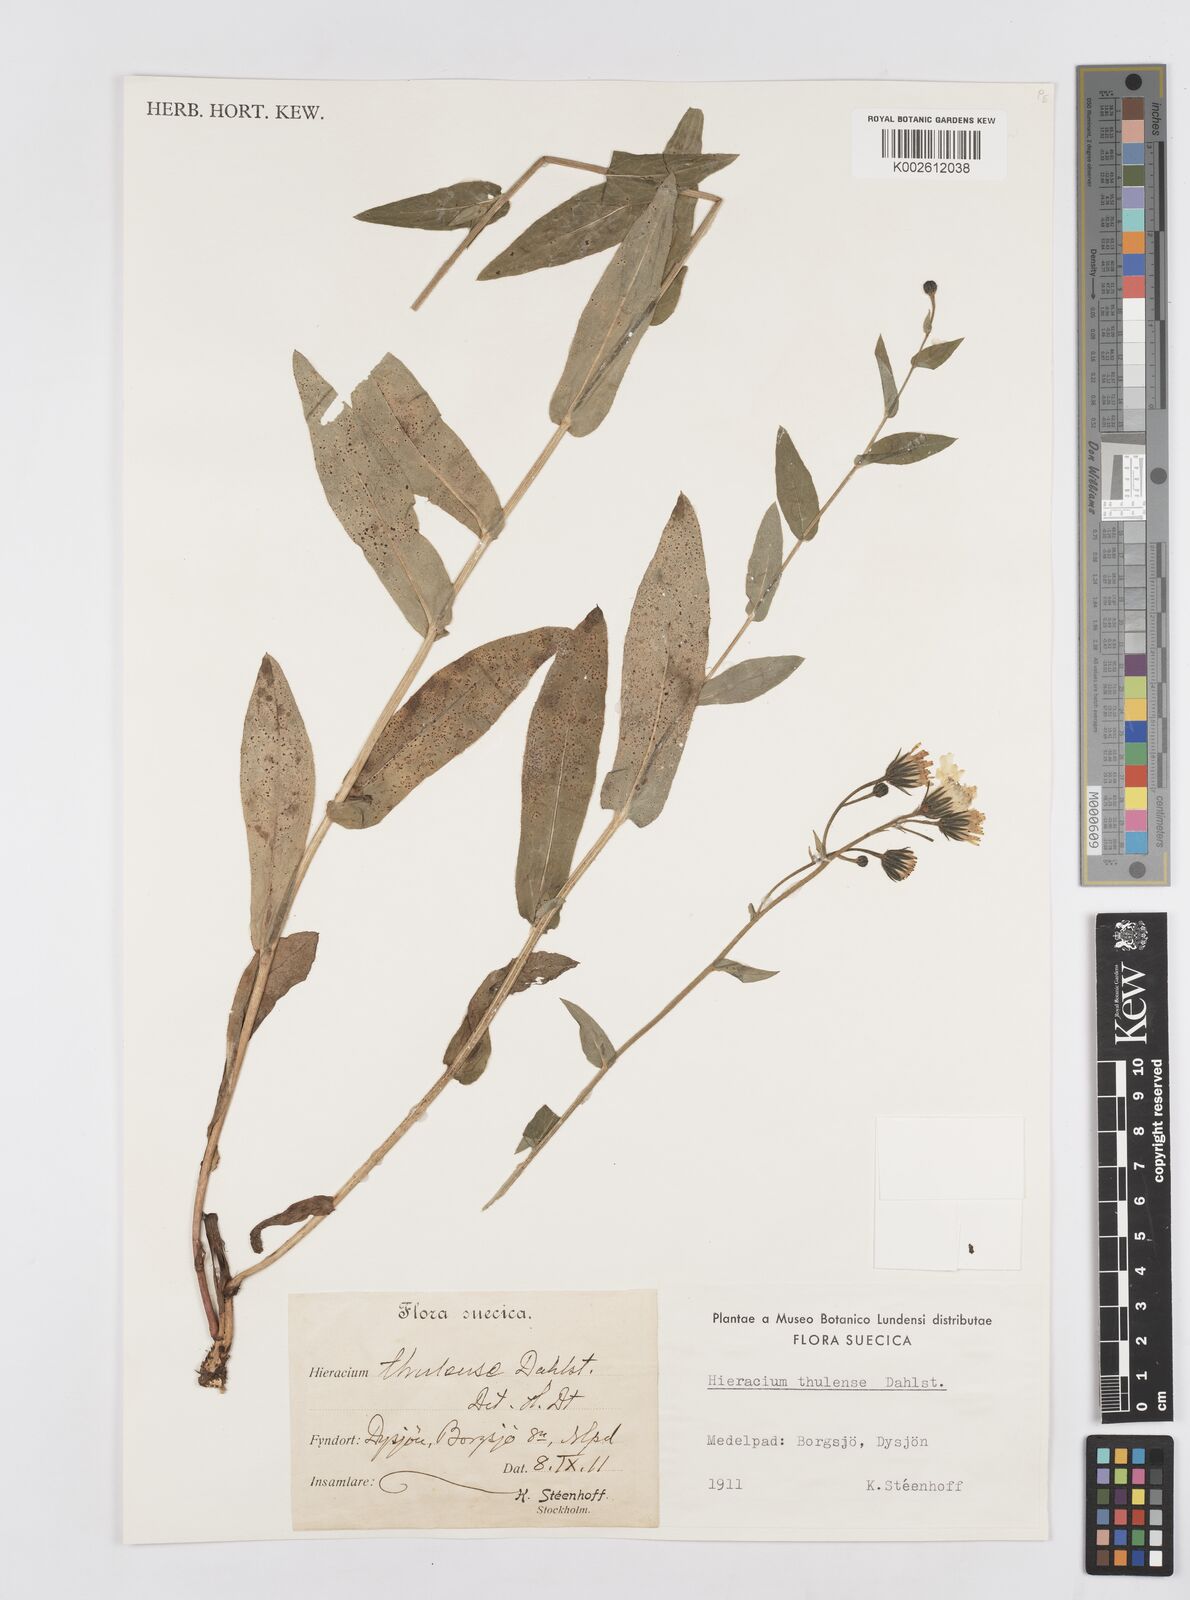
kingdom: Plantae
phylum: Tracheophyta
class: Magnoliopsida
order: Asterales
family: Asteraceae
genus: Hieracium
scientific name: Hieracium thulense
